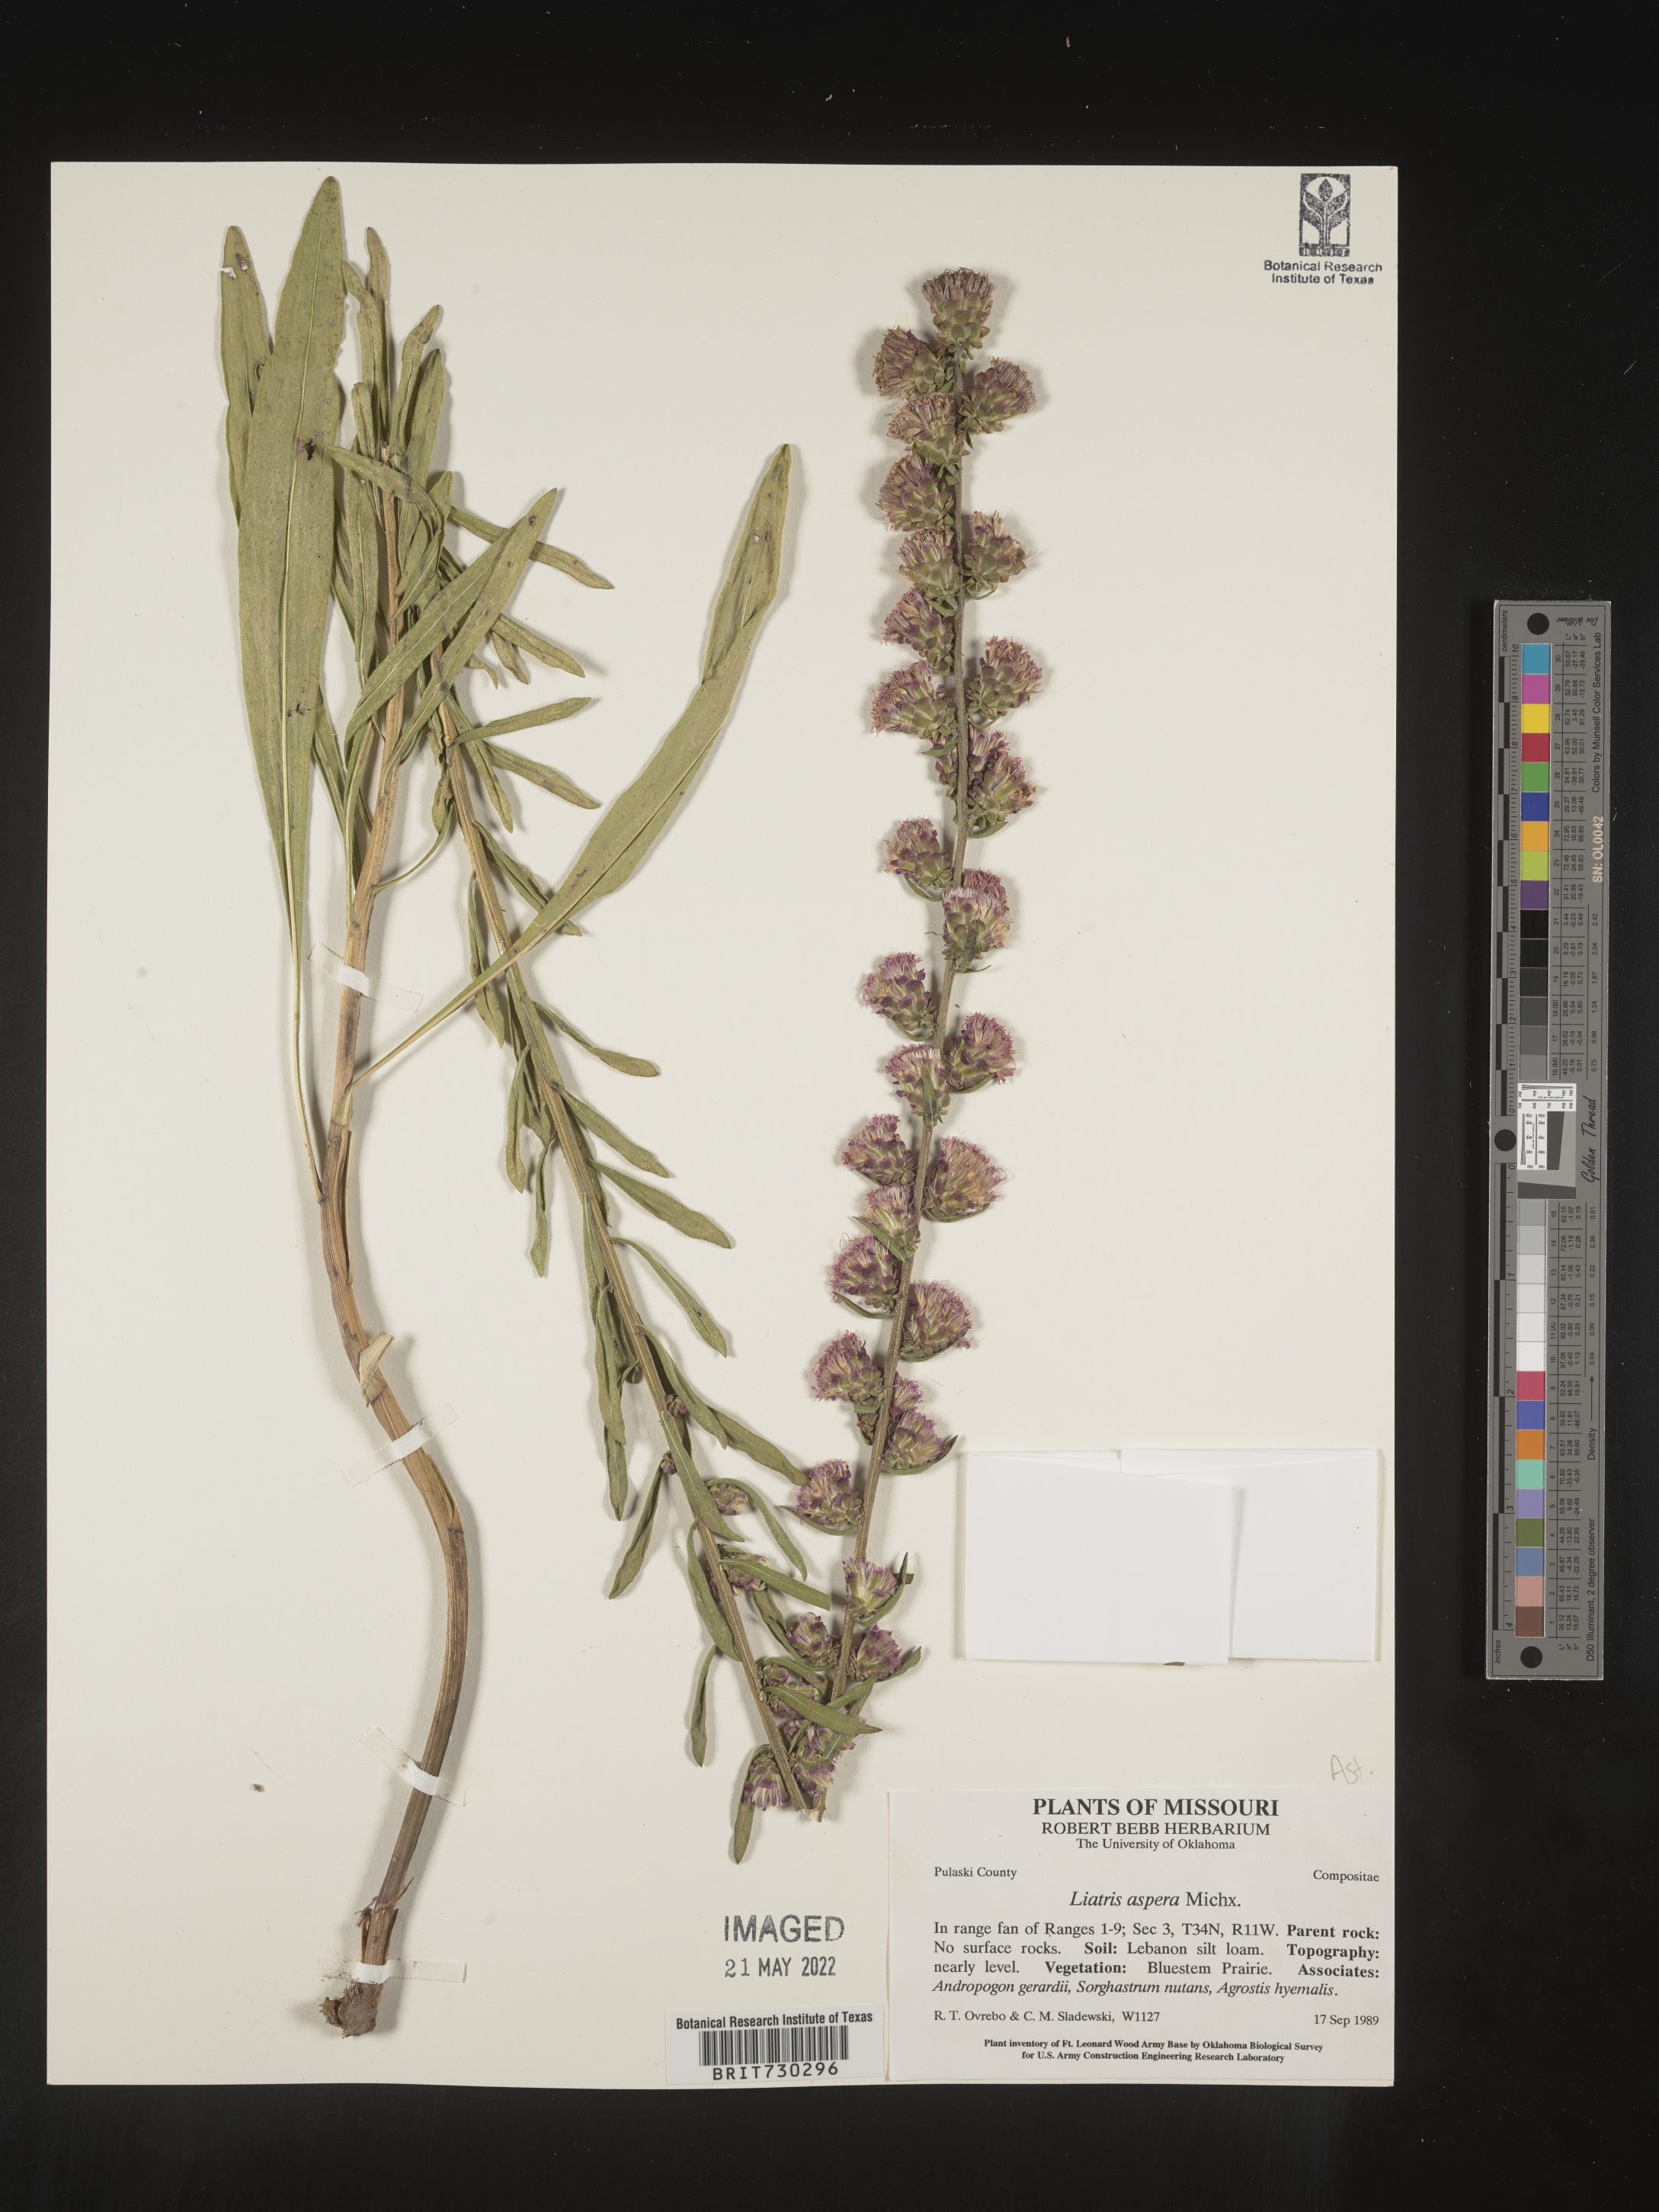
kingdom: Plantae
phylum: Tracheophyta
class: Magnoliopsida
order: Asterales
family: Asteraceae
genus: Liatris
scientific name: Liatris aspera
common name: Lacerate blazing-star
